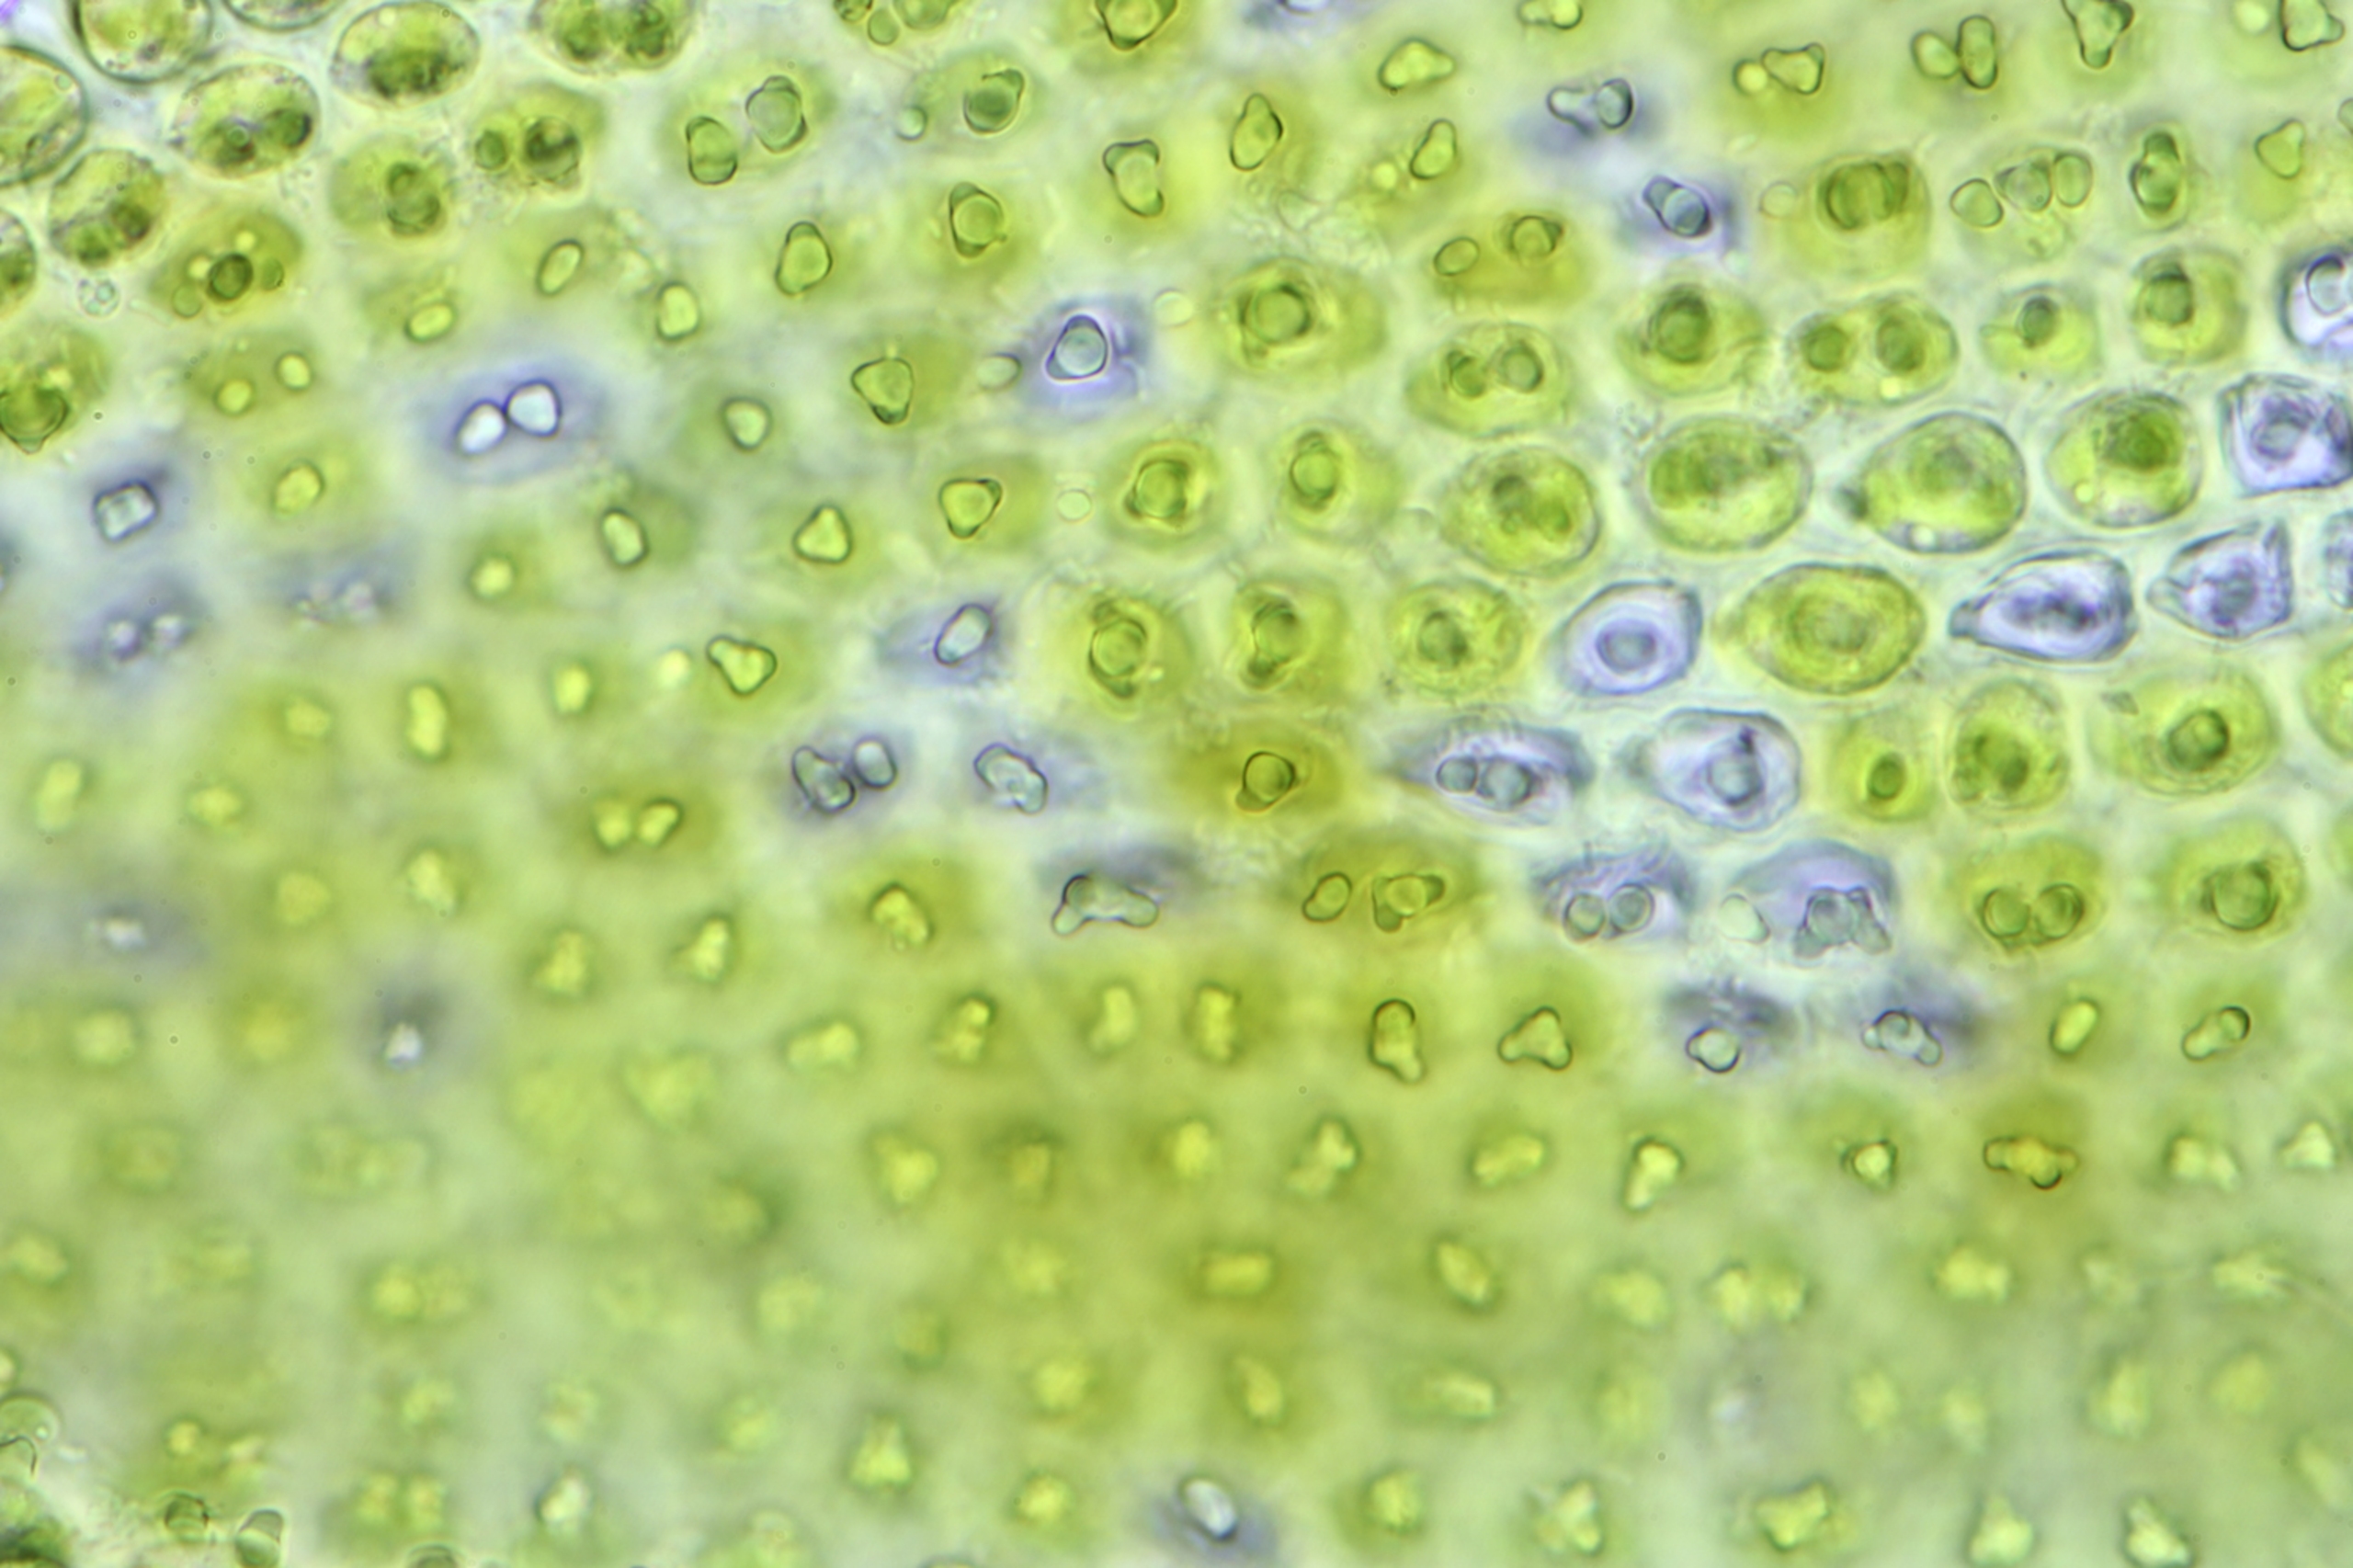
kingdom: Plantae
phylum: Bryophyta
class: Bryopsida
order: Hedwigiales
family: Hedwigiaceae
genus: Hedwigia
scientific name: Hedwigia stellata
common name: Stjernebladet hedwigia
